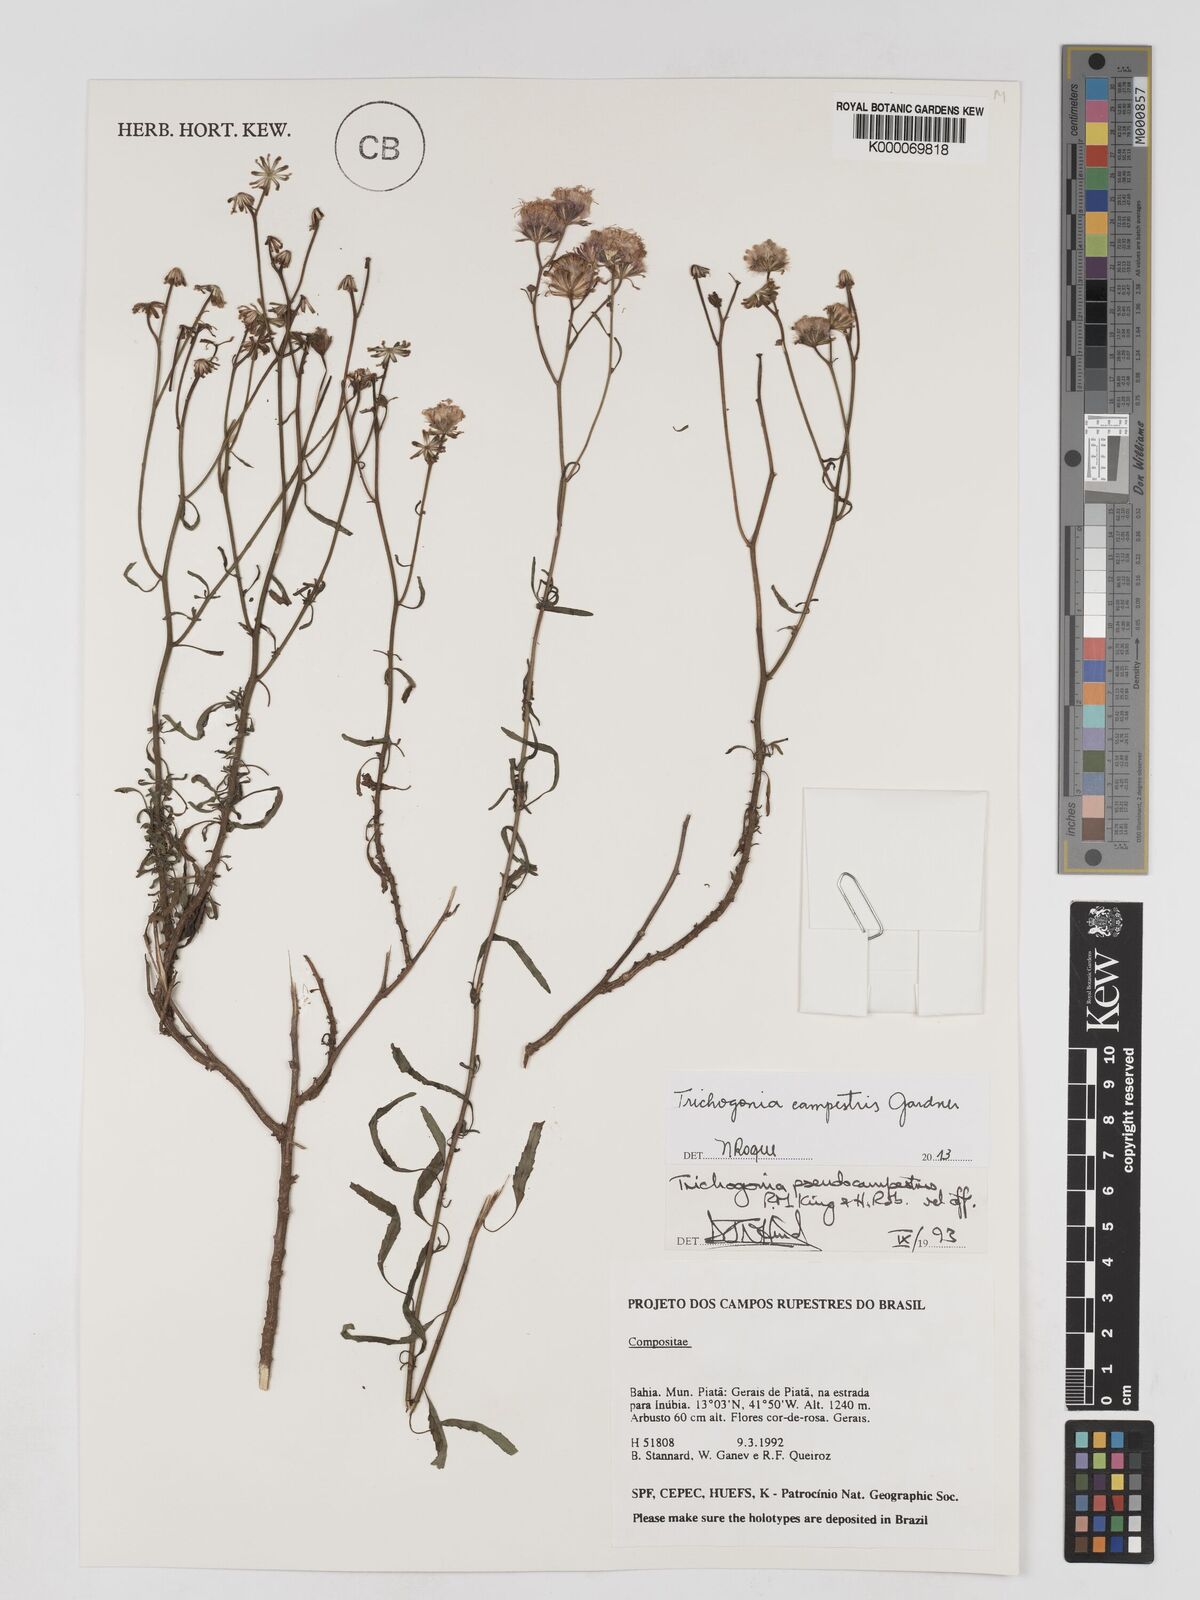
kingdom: Plantae
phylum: Tracheophyta
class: Magnoliopsida
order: Asterales
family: Asteraceae
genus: Trichogonia
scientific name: Trichogonia campestris
